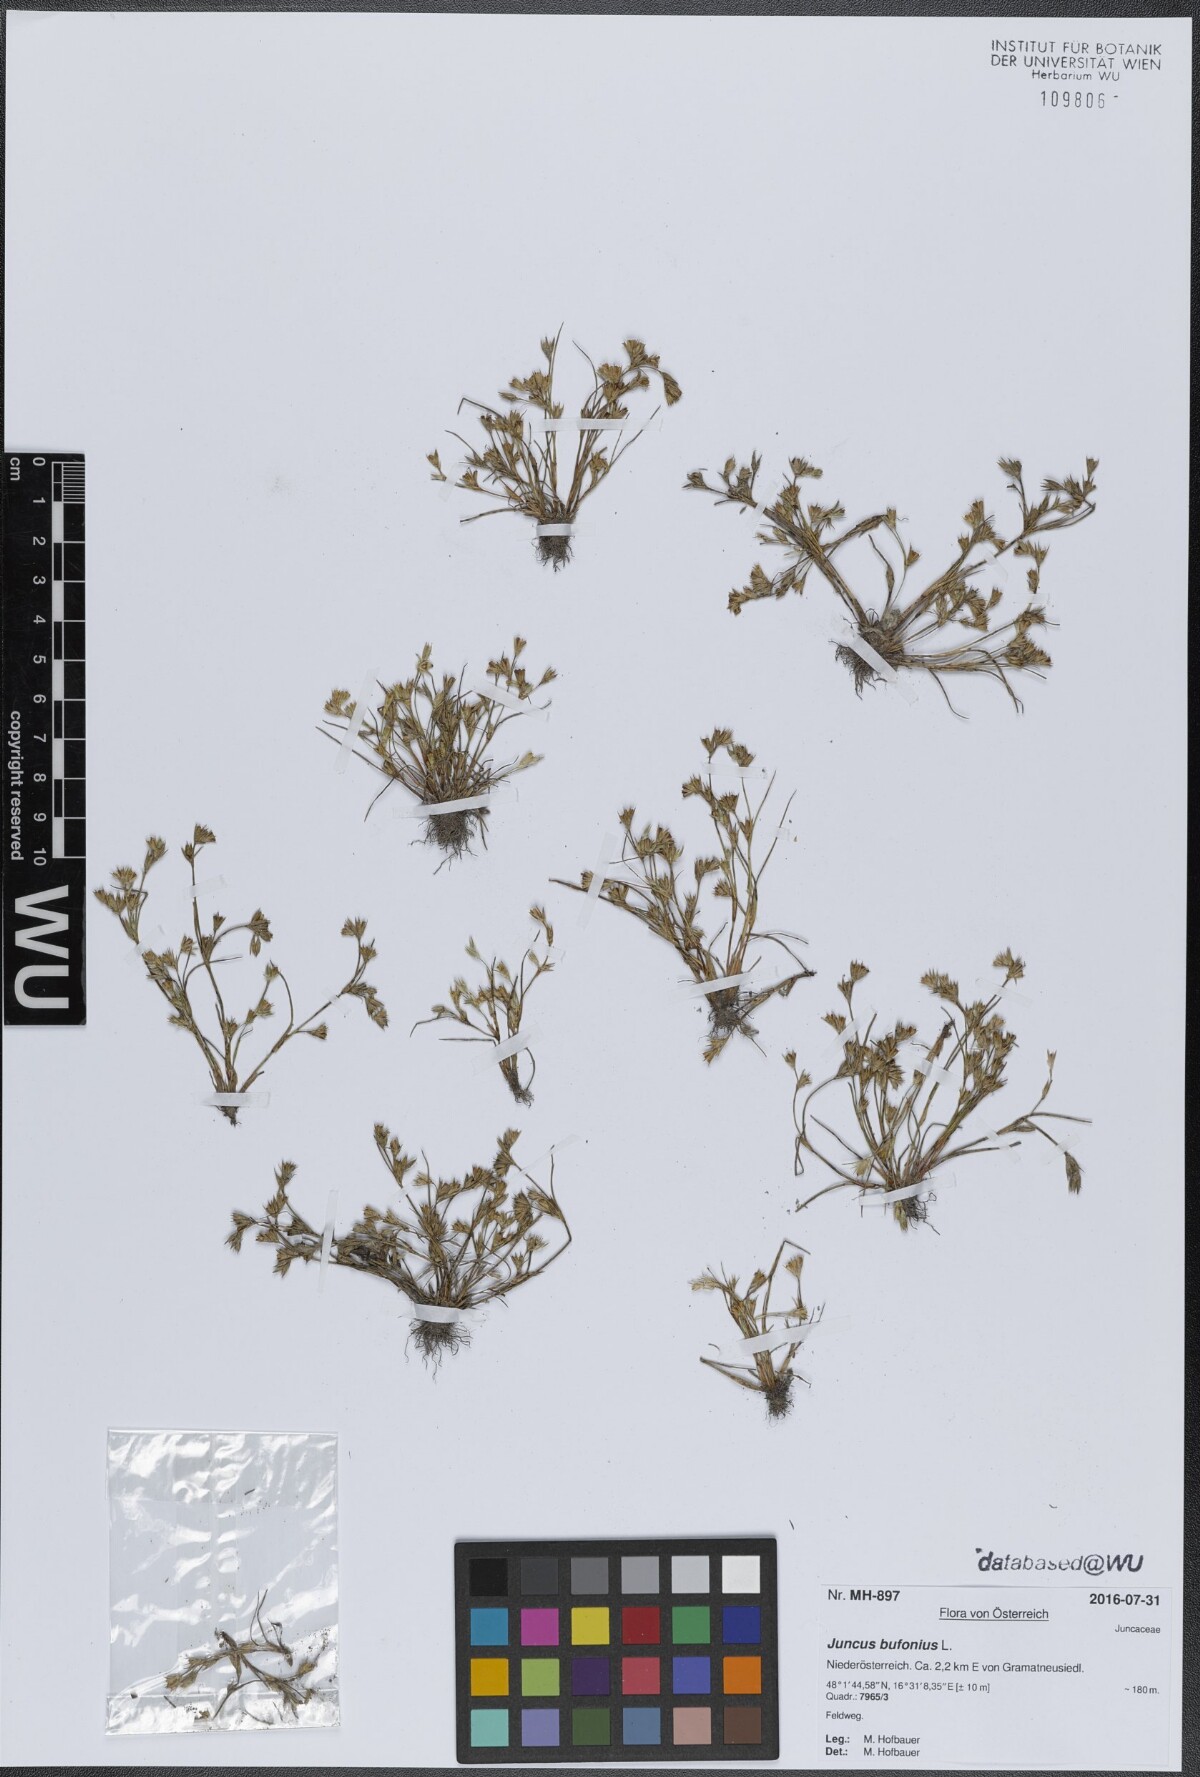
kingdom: Plantae
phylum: Tracheophyta
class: Liliopsida
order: Poales
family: Juncaceae
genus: Juncus
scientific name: Juncus bufonius
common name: Toad rush
